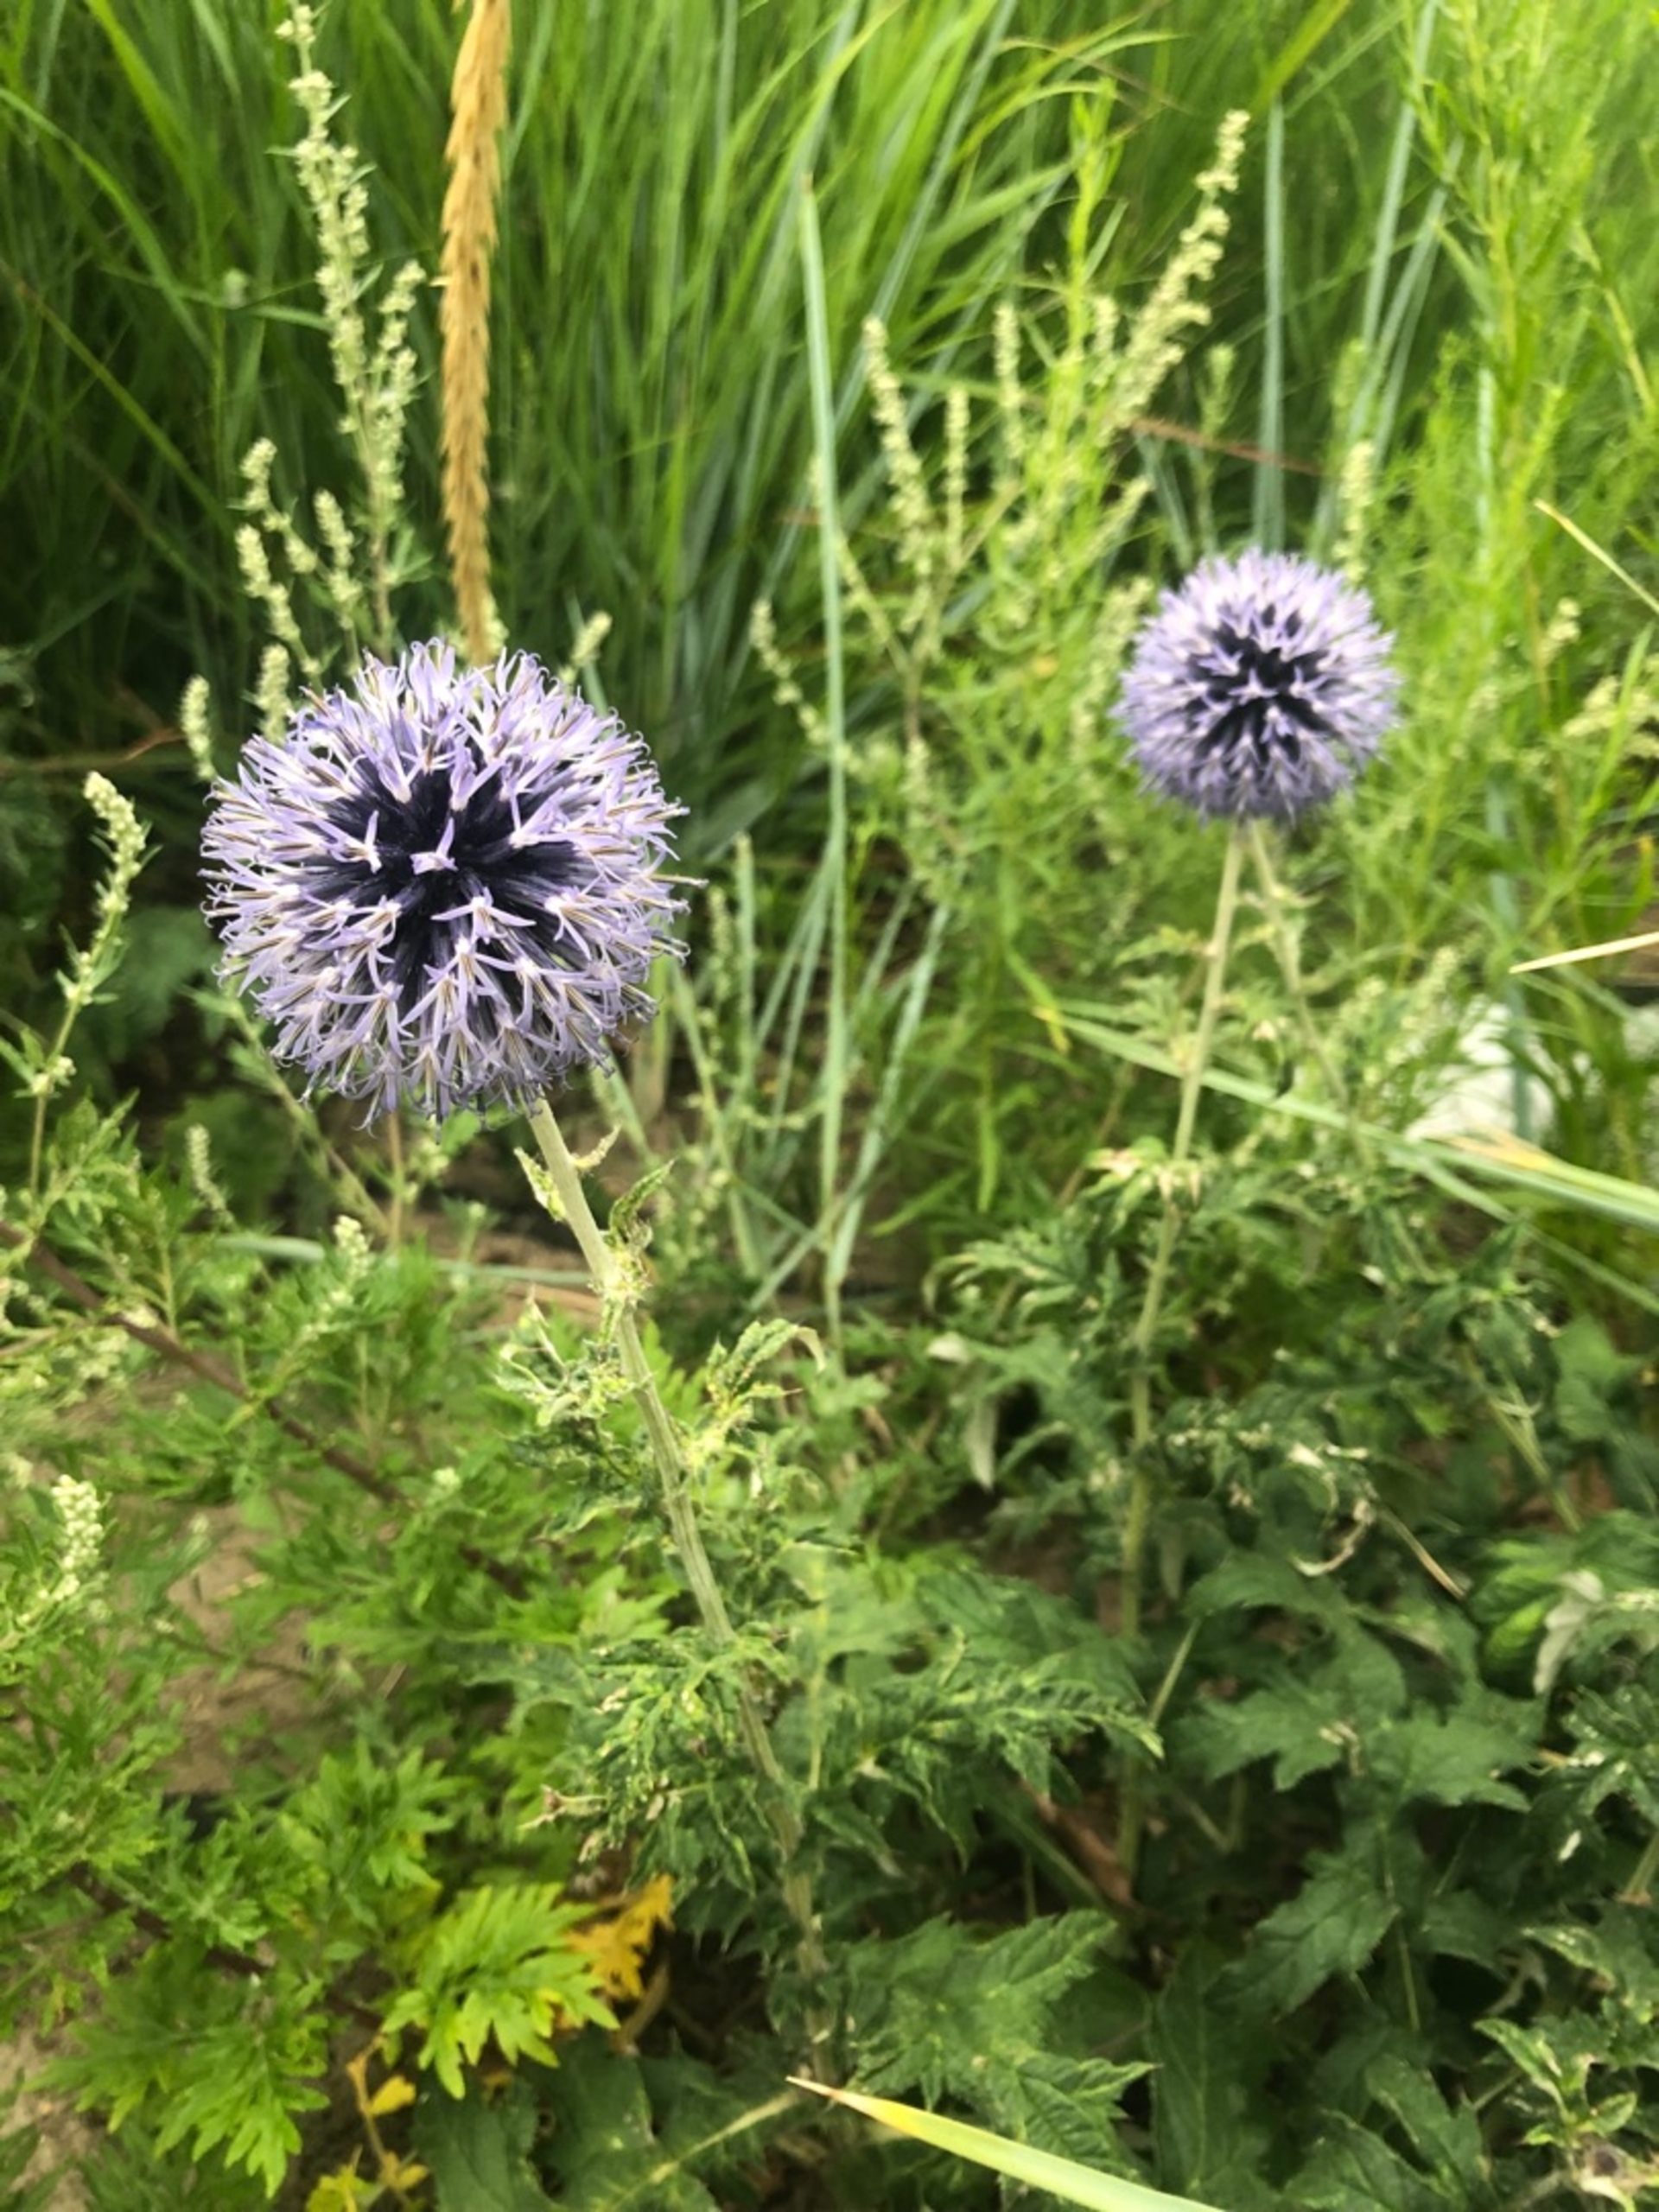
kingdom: Plantae
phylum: Tracheophyta
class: Magnoliopsida
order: Asterales
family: Asteraceae
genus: Echinops
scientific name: Echinops bannaticus
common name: Blå tidselkugle
